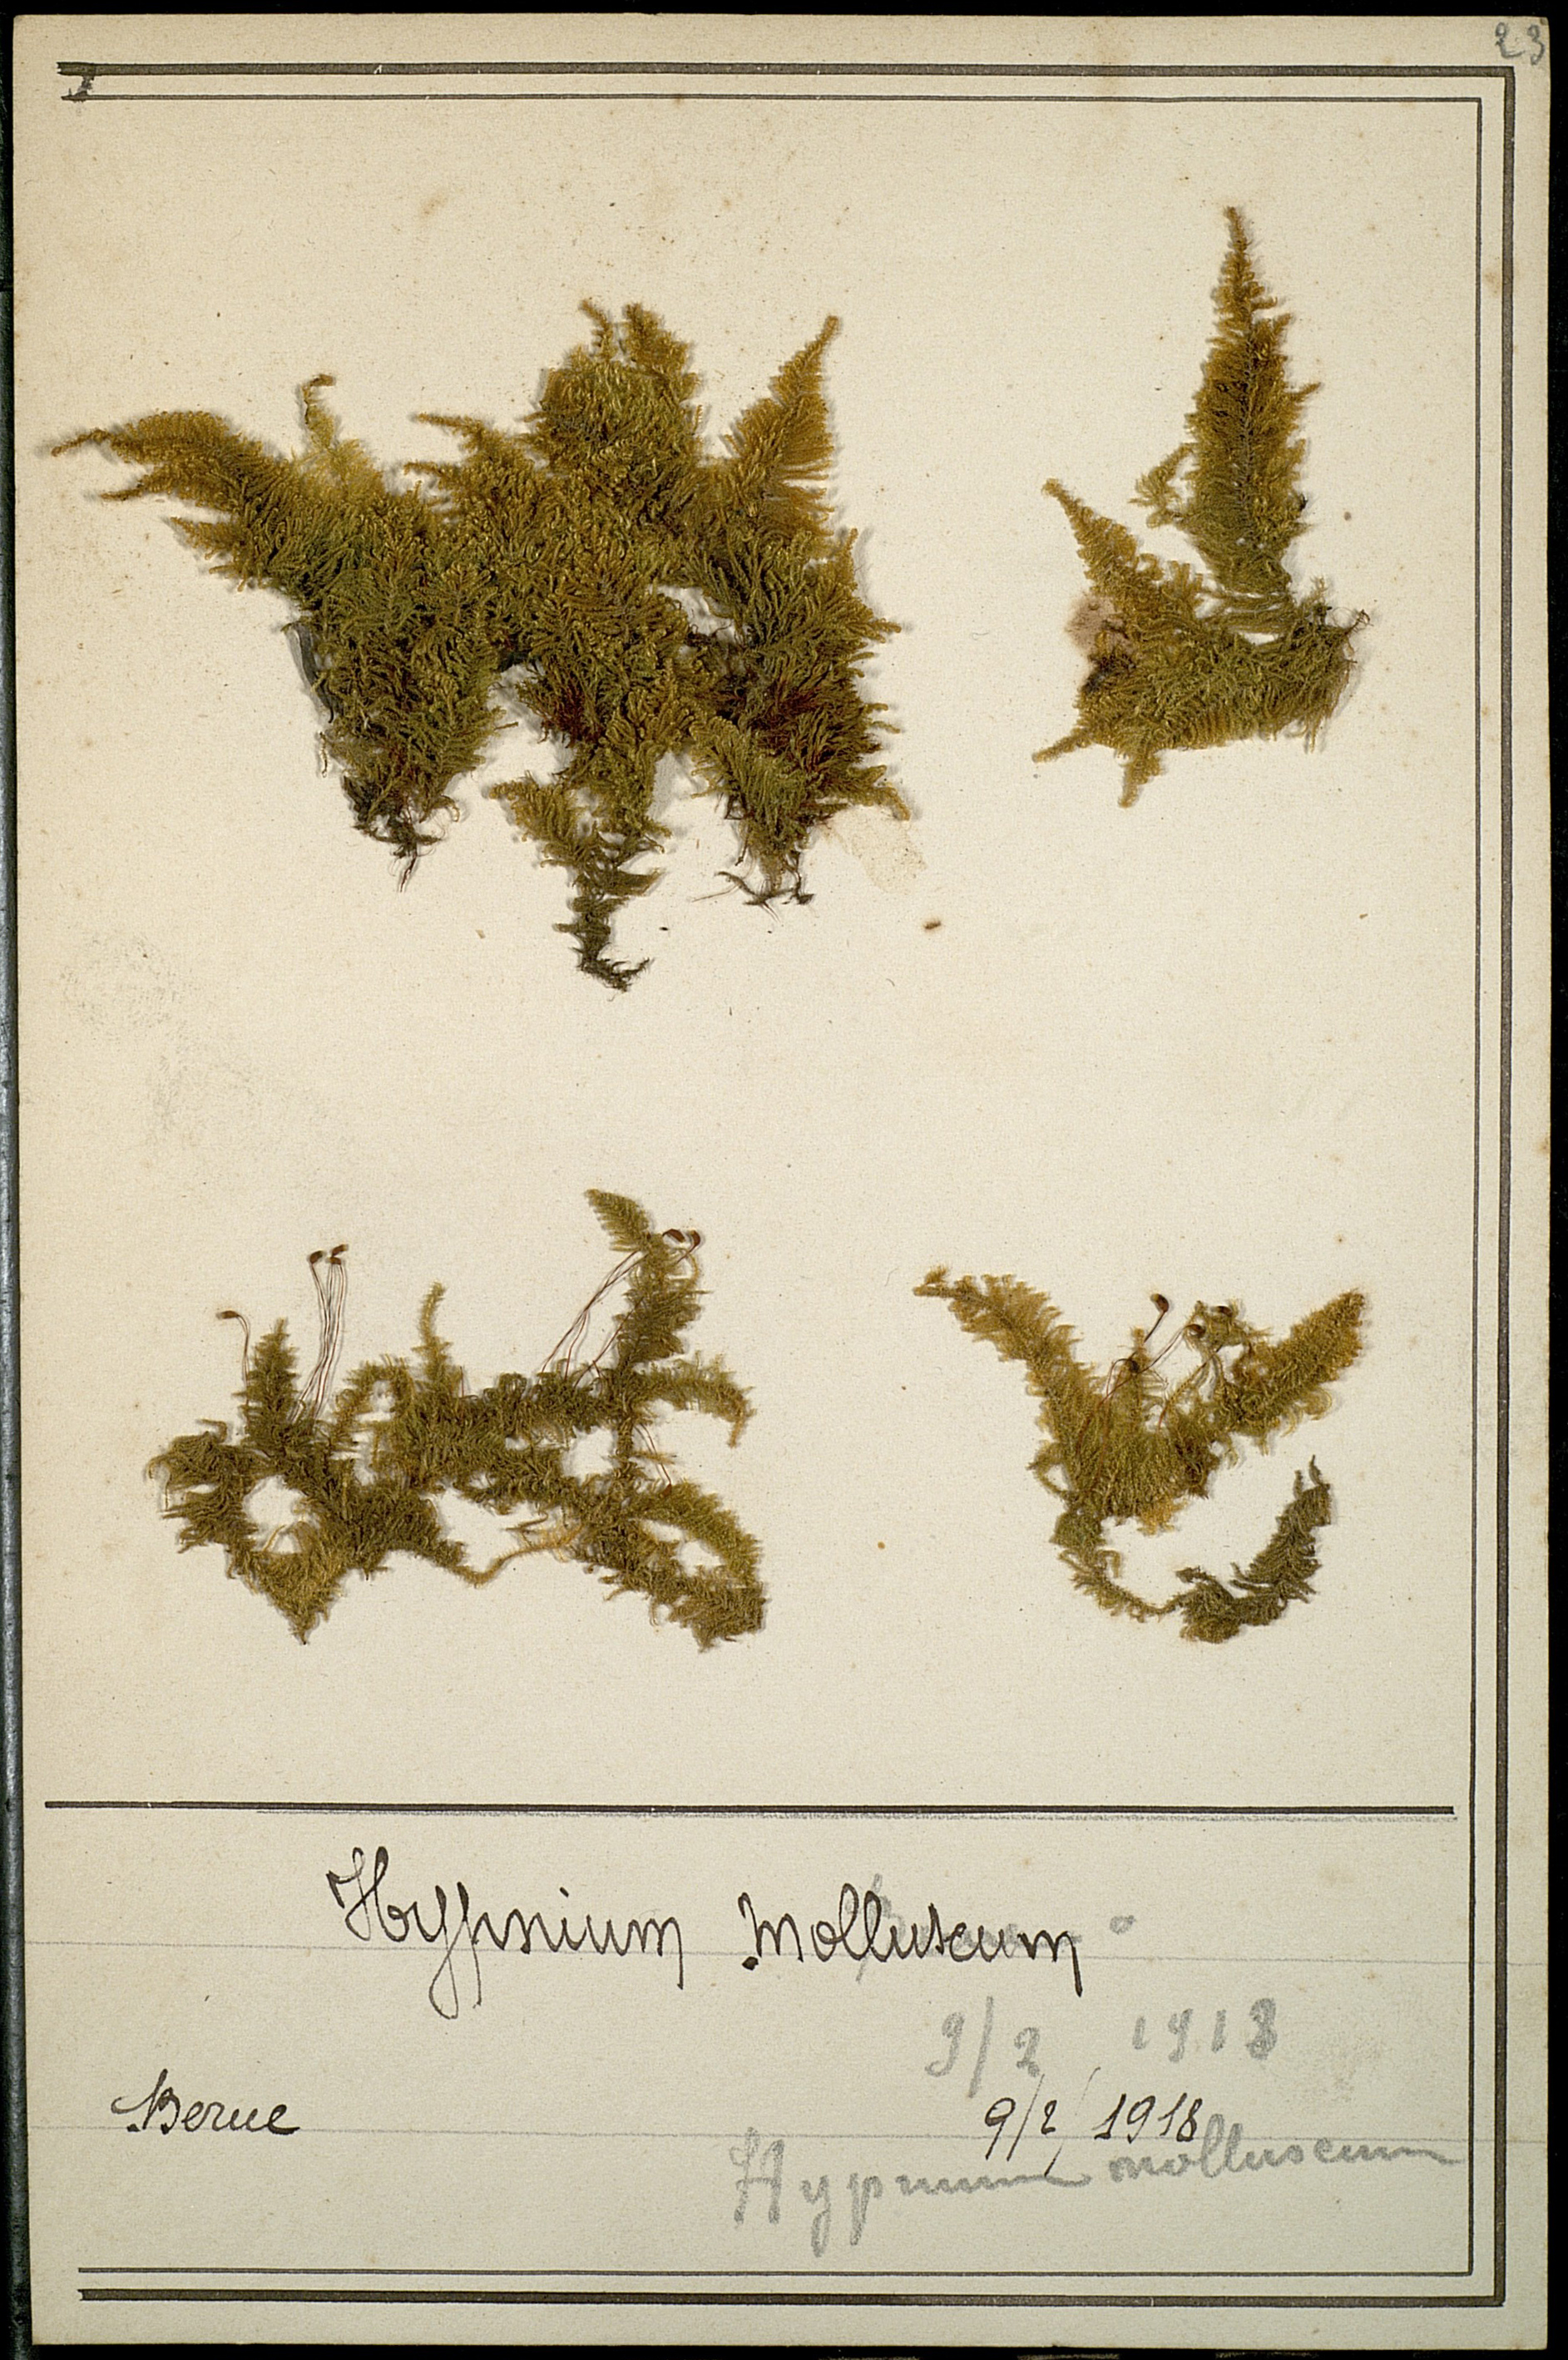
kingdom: Plantae
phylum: Bryophyta
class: Bryopsida
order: Hypnales
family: Myuriaceae
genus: Ctenidium
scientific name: Ctenidium molluscum
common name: Chalk comb-moss
